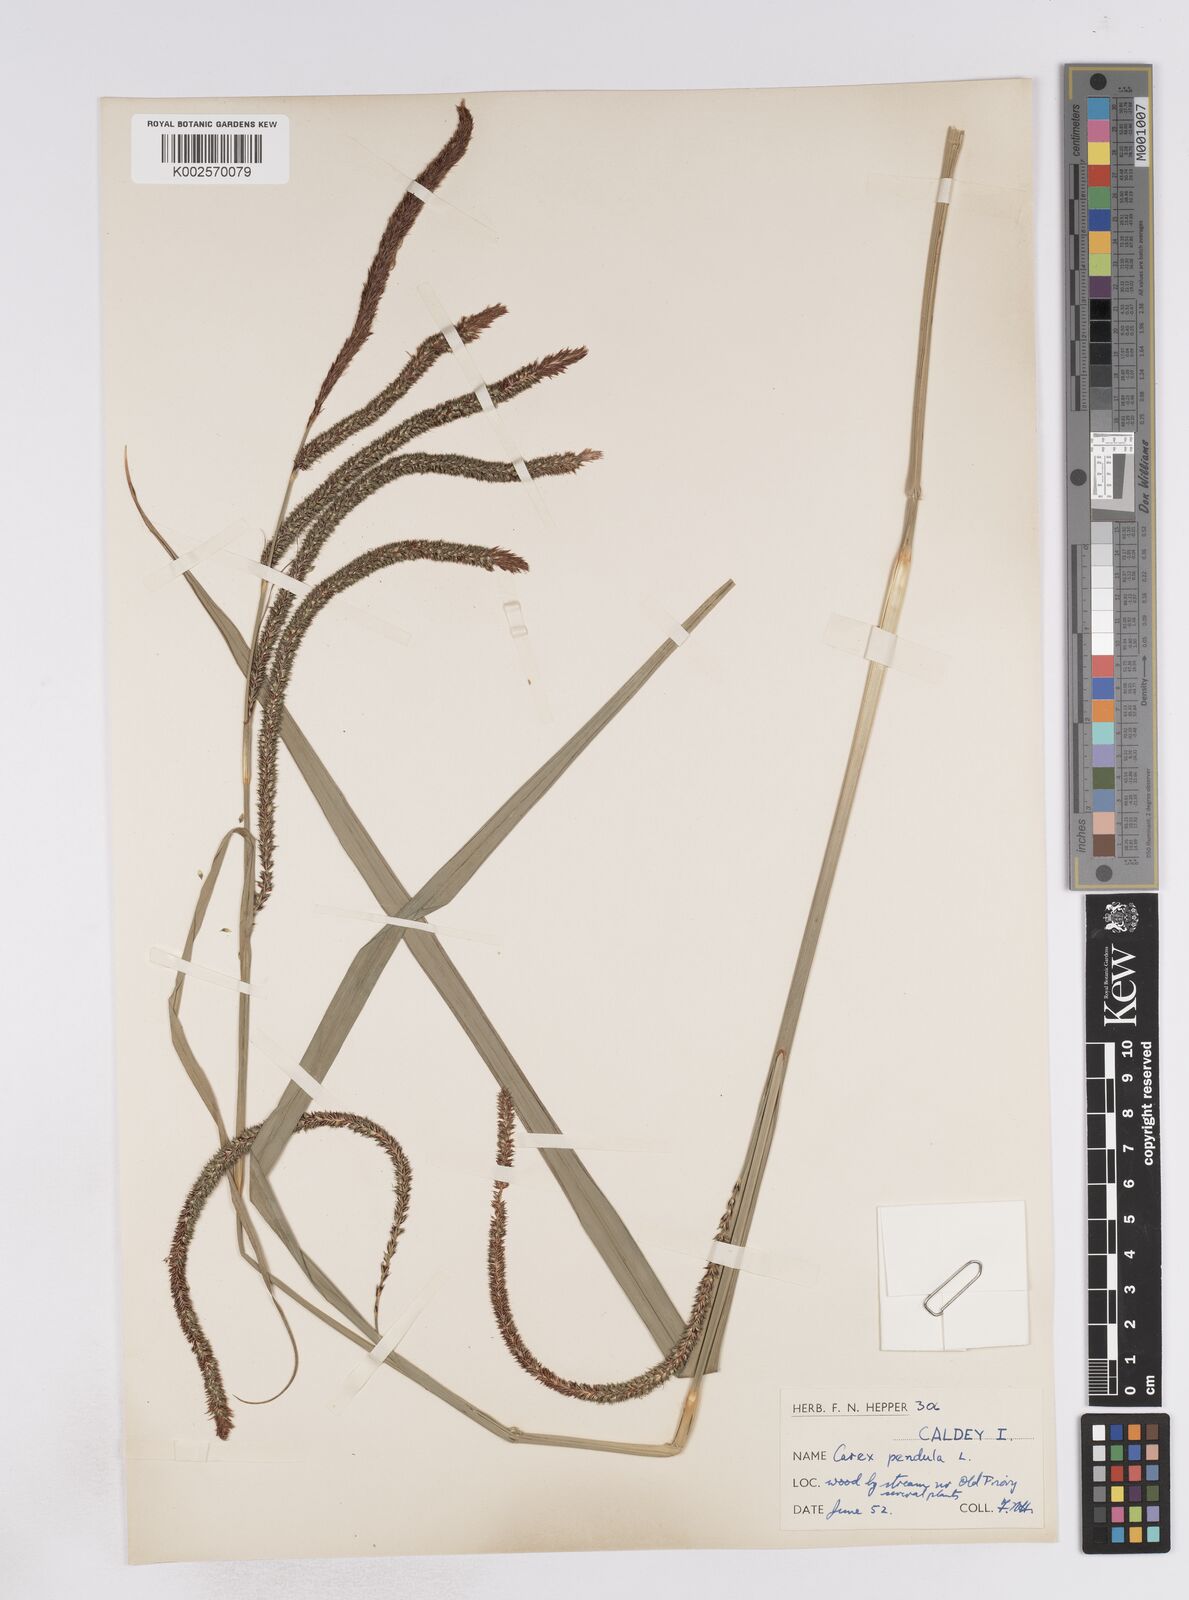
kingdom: Plantae
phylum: Tracheophyta
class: Liliopsida
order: Poales
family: Cyperaceae
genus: Carex
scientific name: Carex pendula
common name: Pendulous sedge
